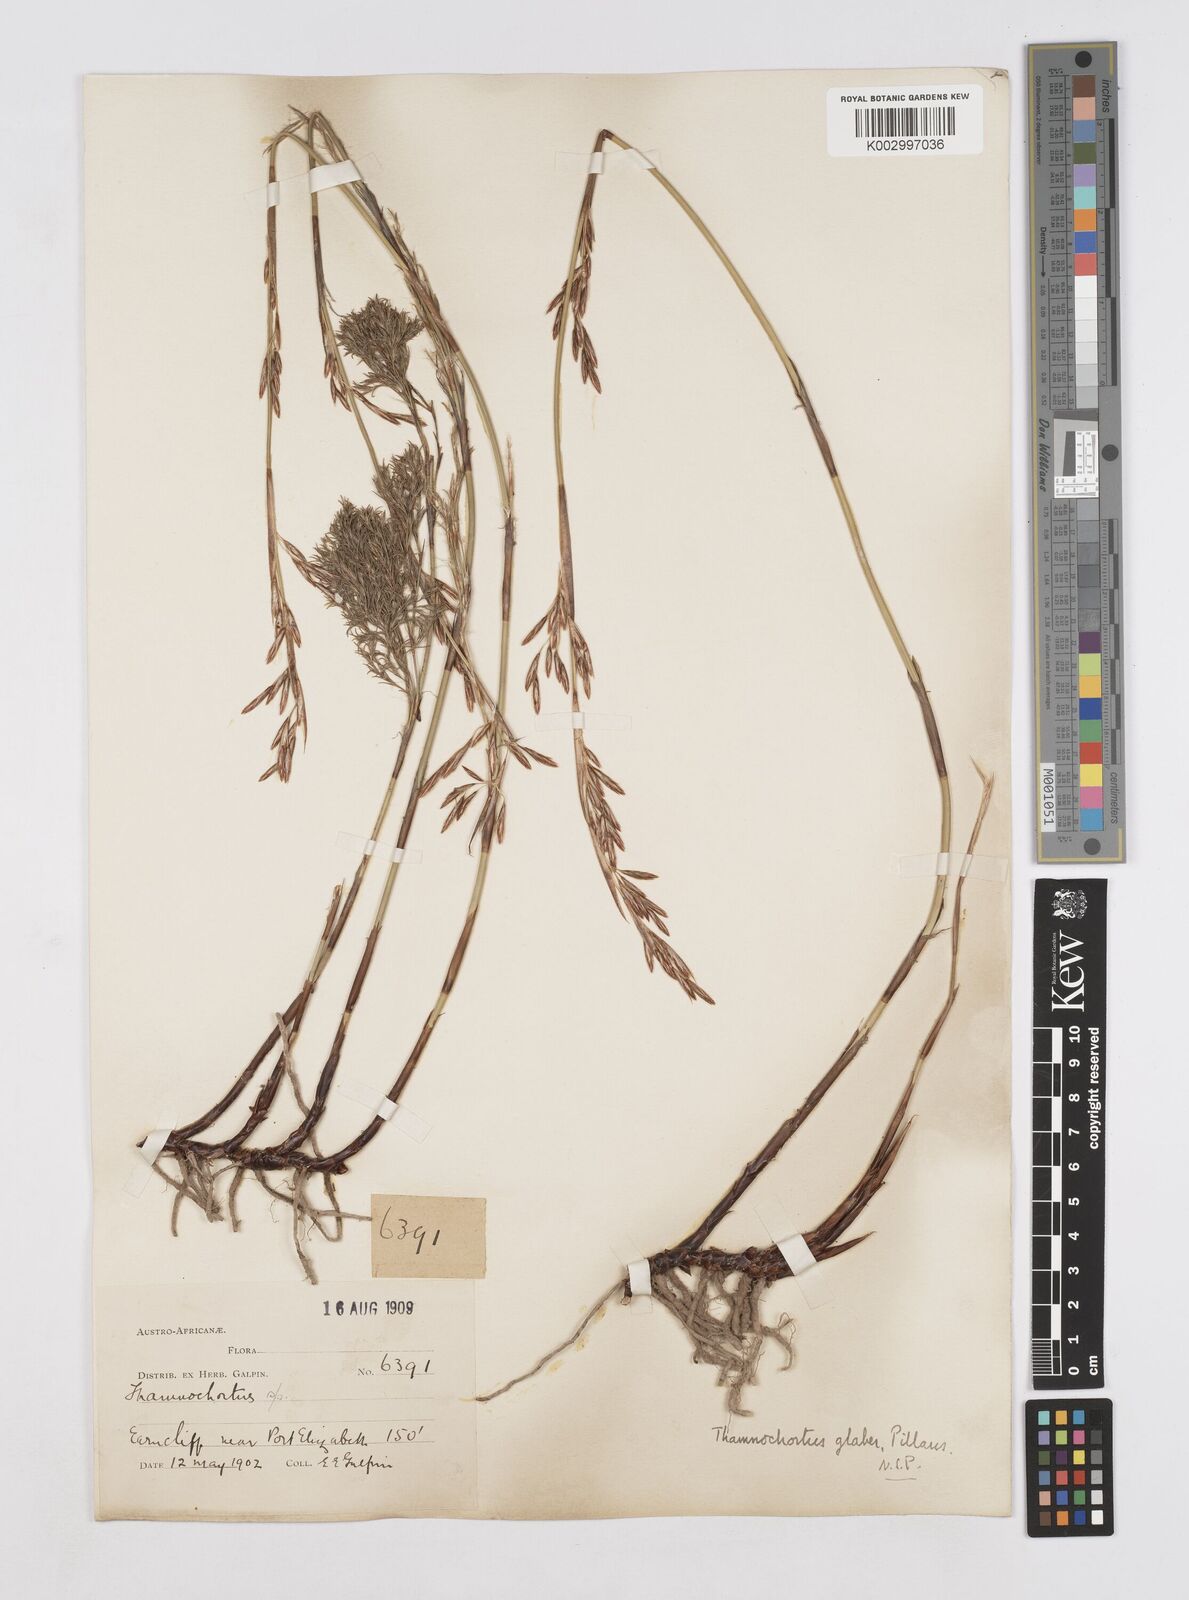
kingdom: Plantae
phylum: Tracheophyta
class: Liliopsida
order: Poales
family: Restionaceae
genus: Thamnochortus
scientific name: Thamnochortus glaber
